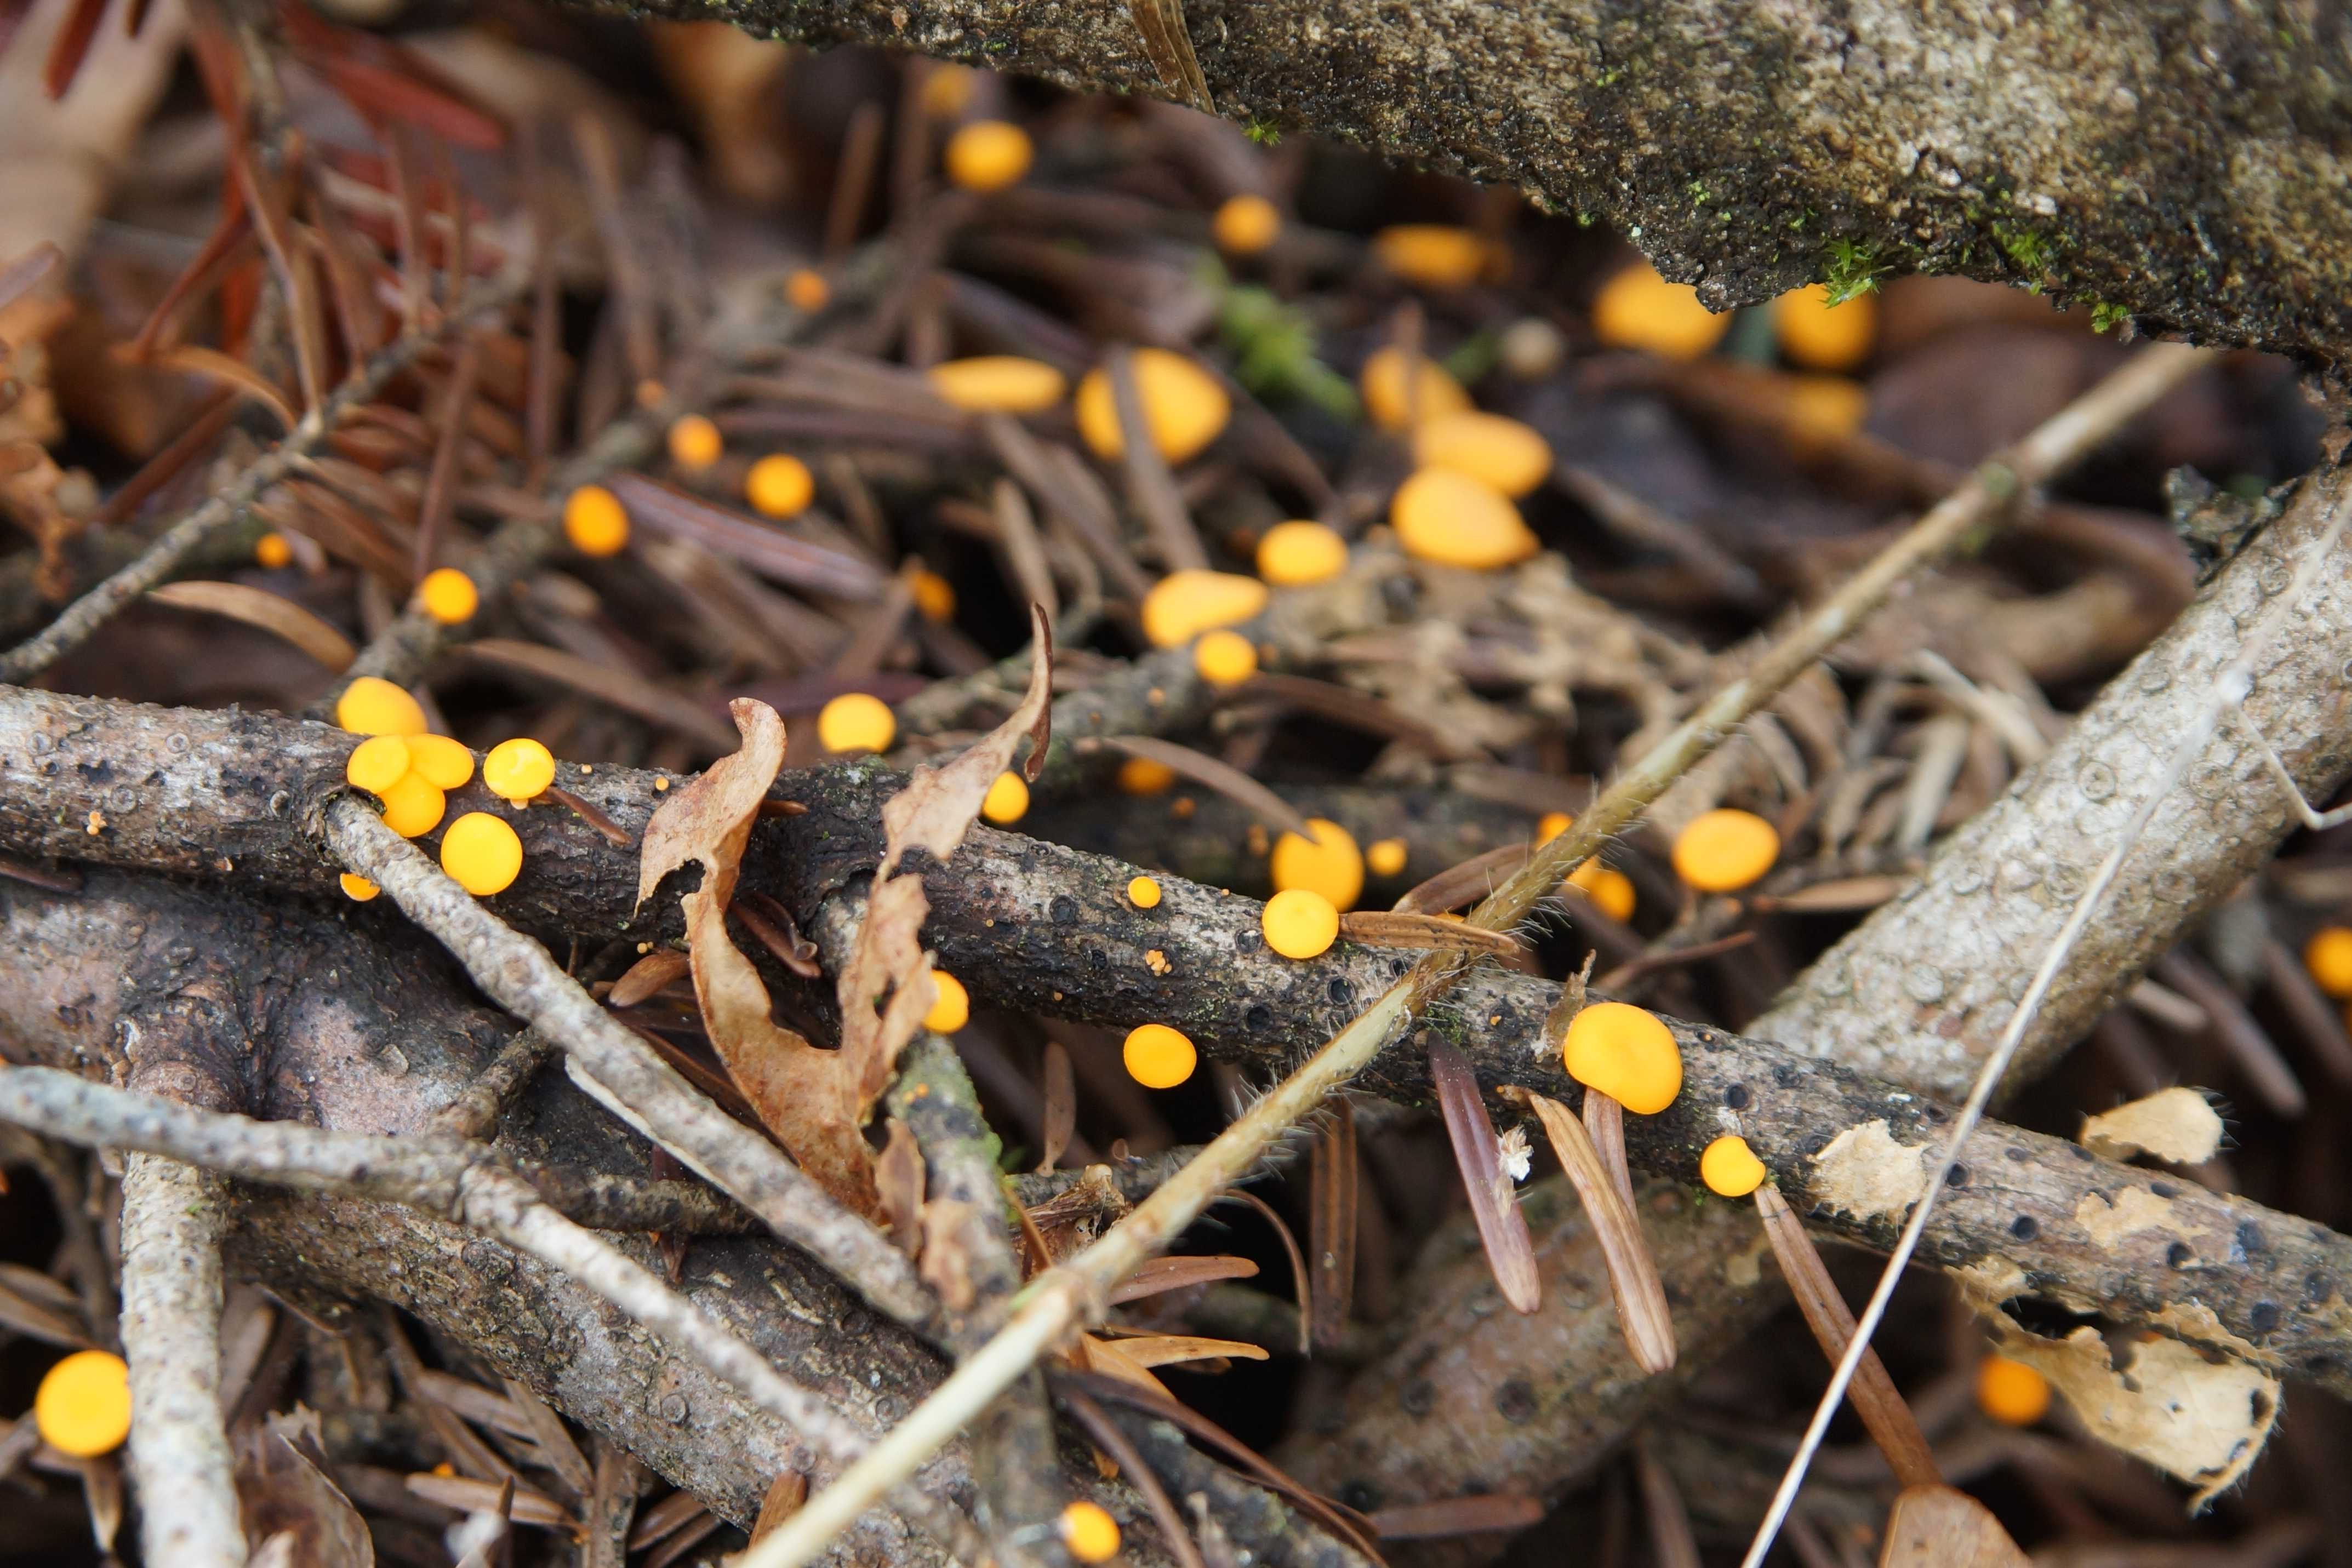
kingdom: Fungi
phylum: Ascomycota
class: Pezizomycetes
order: Pezizales
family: Sarcoscyphaceae
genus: Pithya
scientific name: Pithya vulgaris
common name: stor dukatbæger
